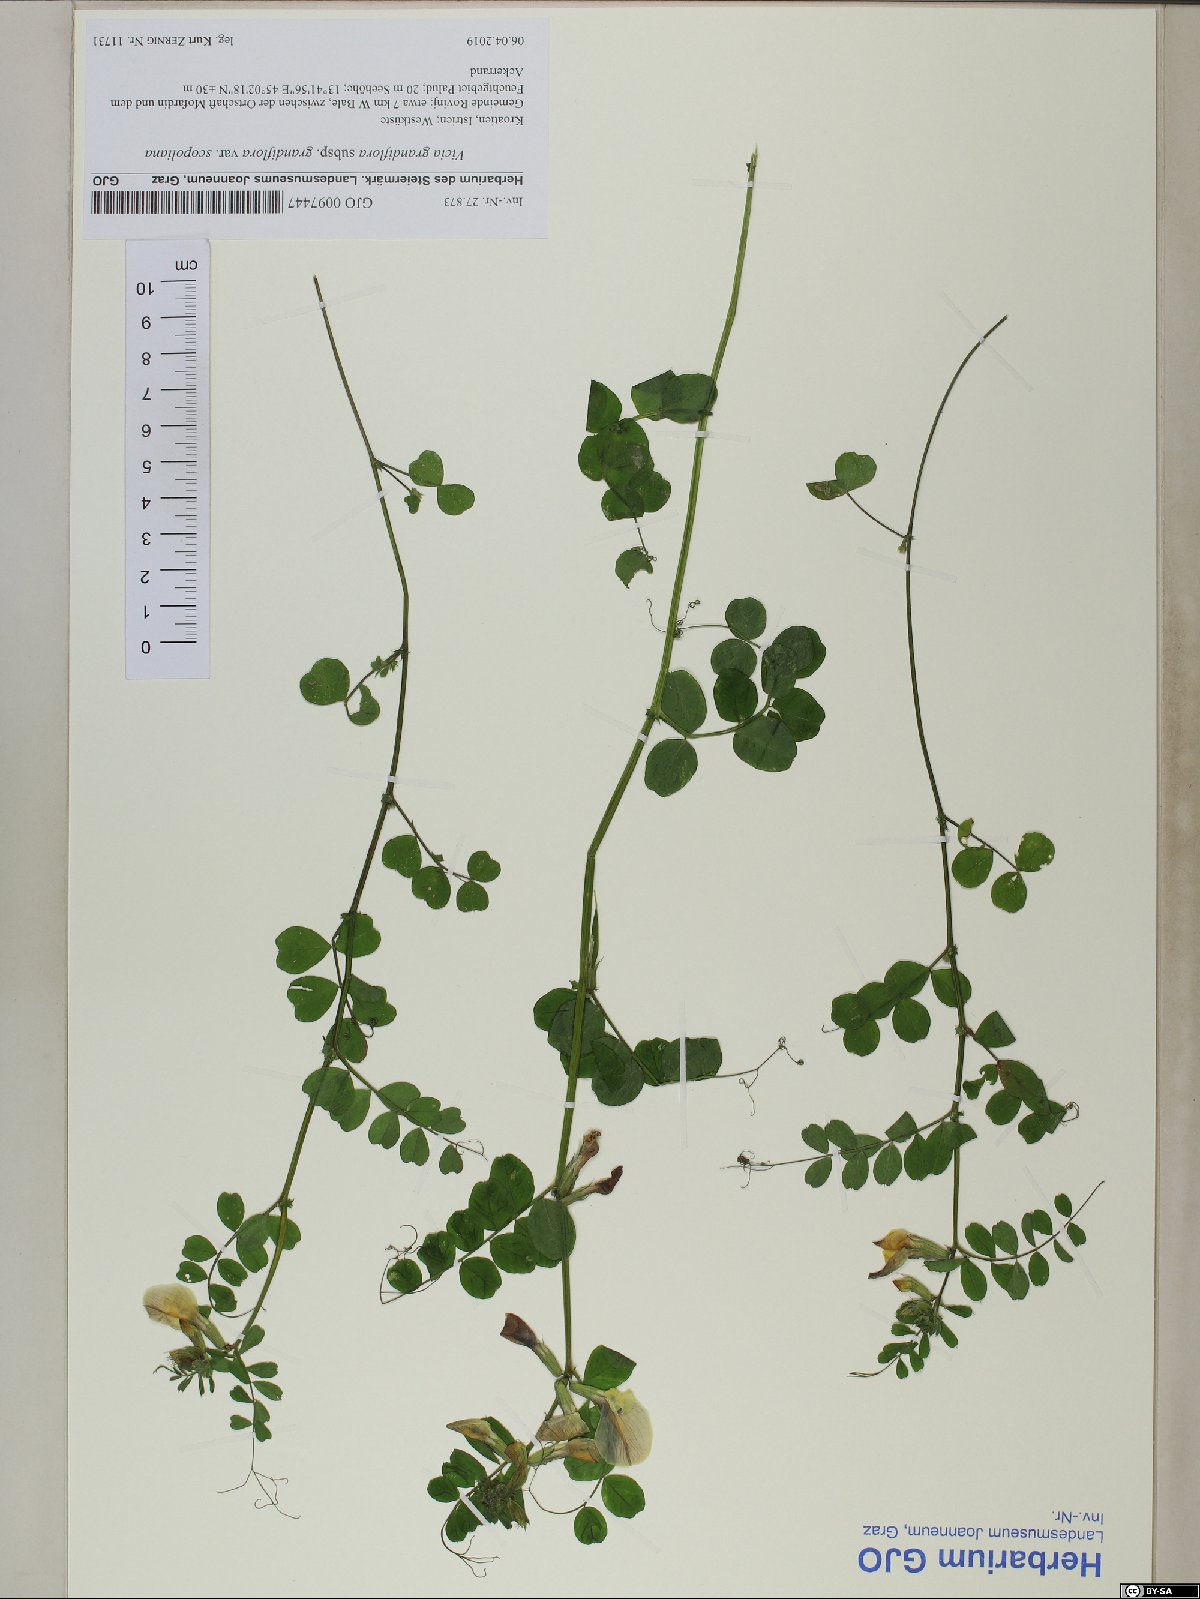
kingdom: Plantae
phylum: Tracheophyta
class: Magnoliopsida
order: Fabales
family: Fabaceae
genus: Vicia
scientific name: Vicia grandiflora
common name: Large yellow vetch
